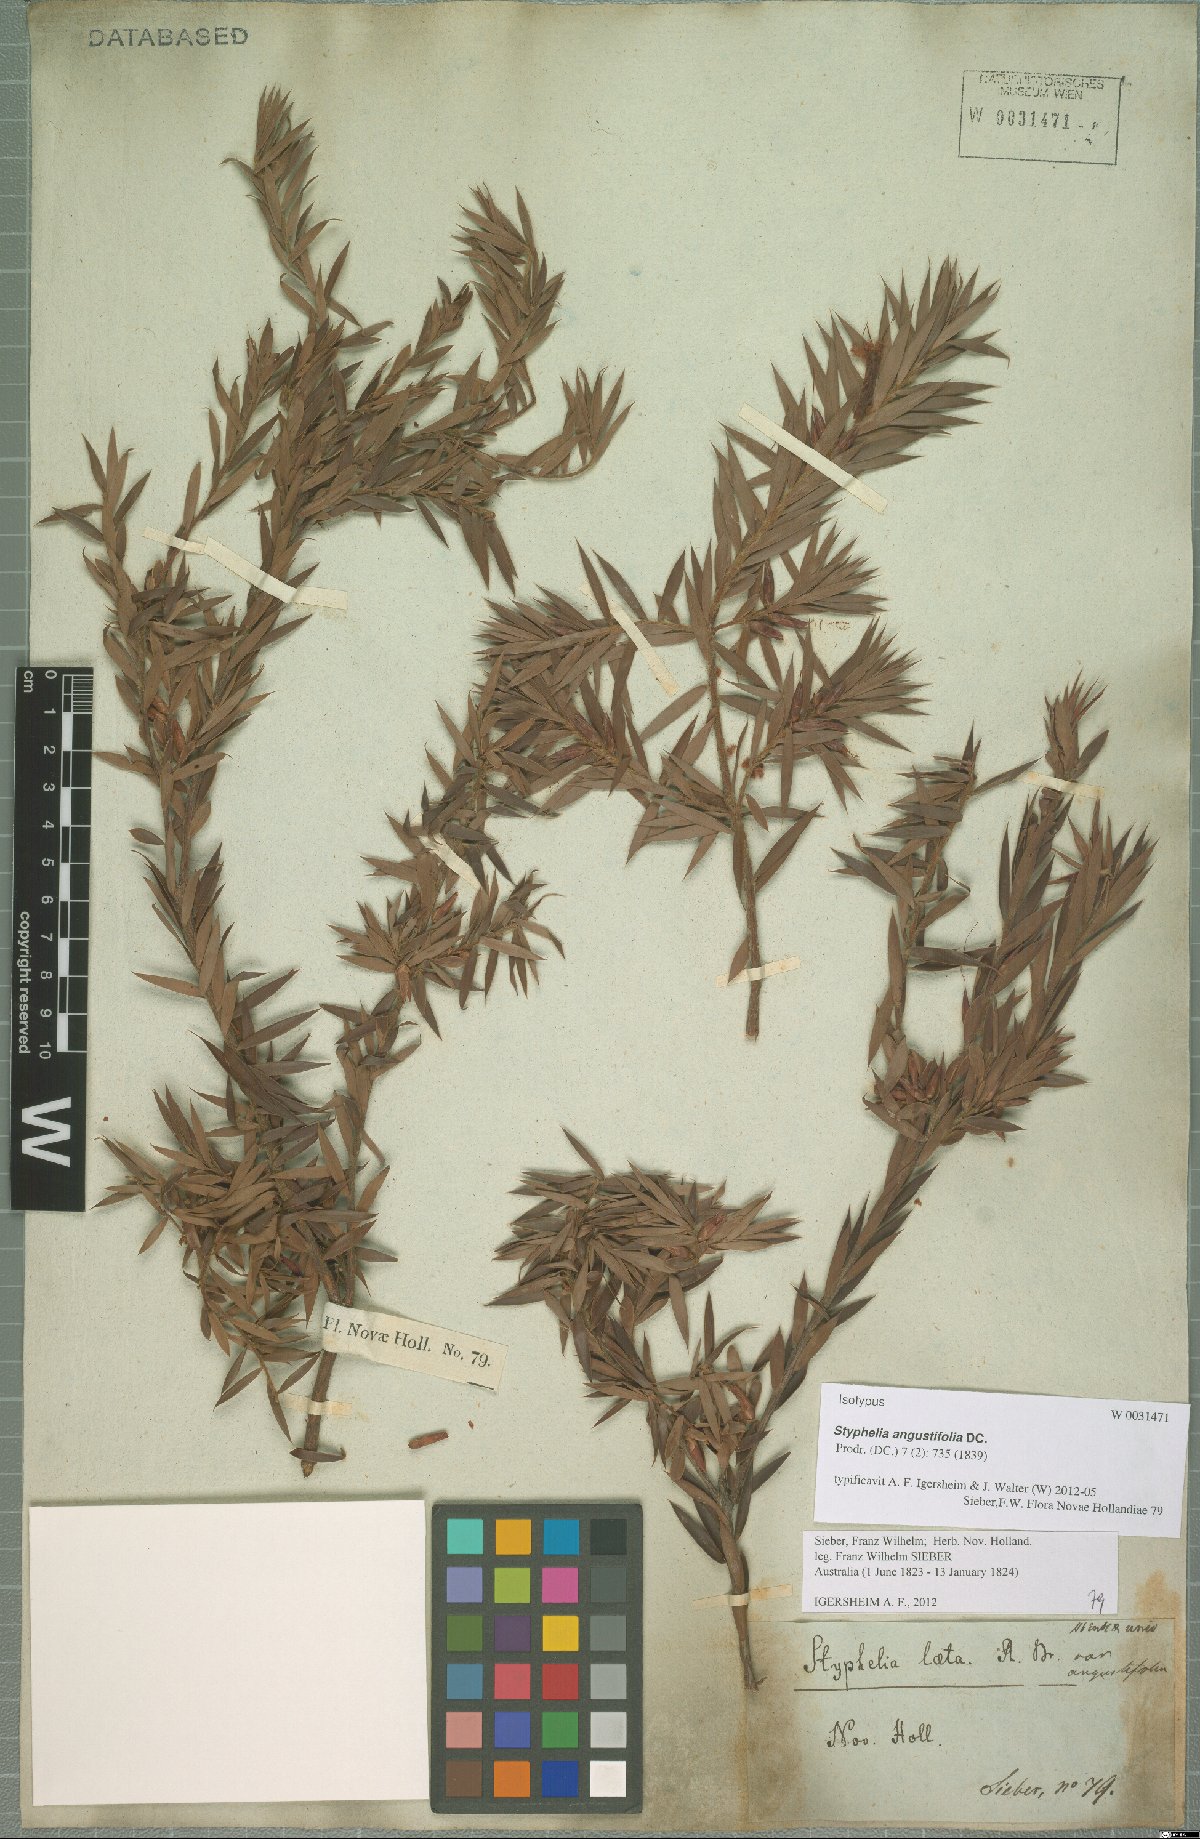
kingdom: Plantae
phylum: Tracheophyta
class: Magnoliopsida
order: Ericales
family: Ericaceae
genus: Styphelia
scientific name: Styphelia laeta
